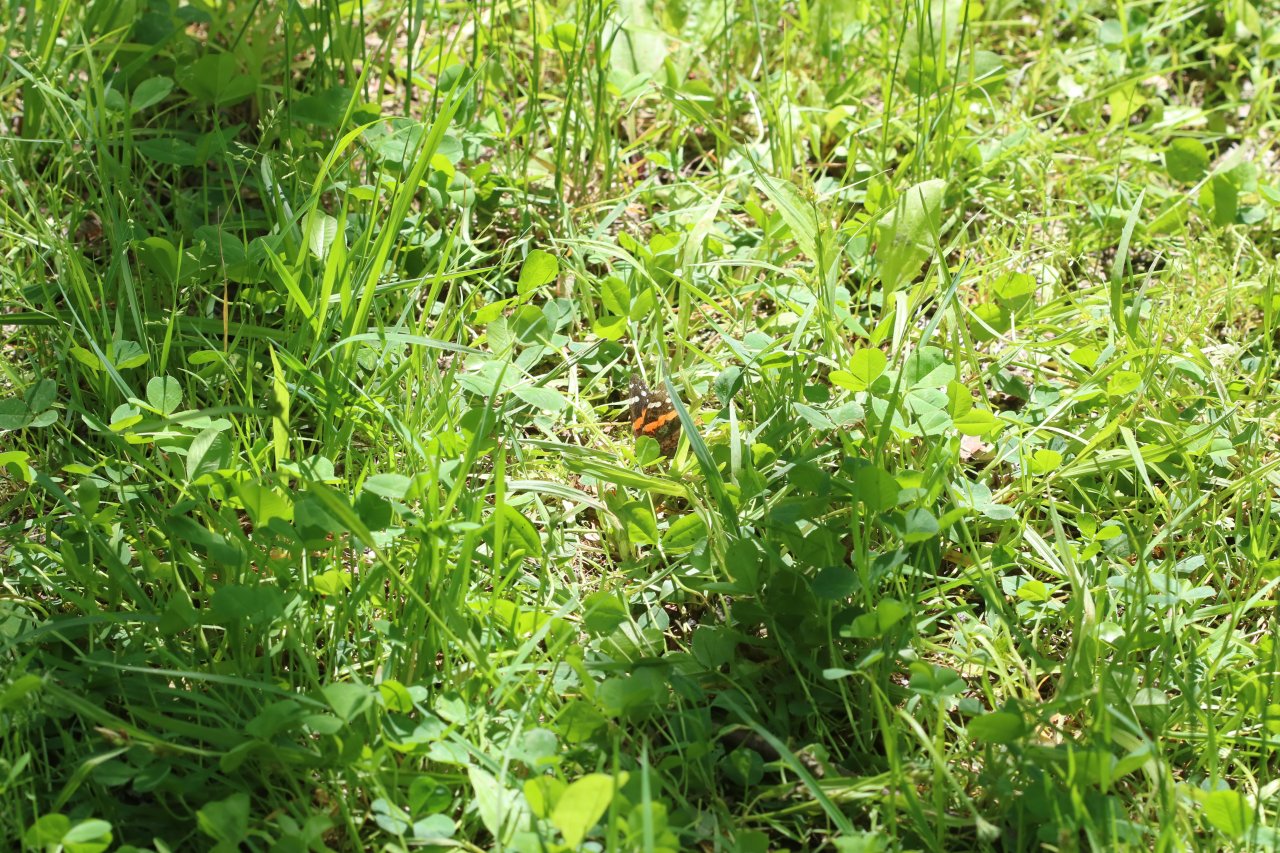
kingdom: Animalia
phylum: Arthropoda
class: Insecta
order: Lepidoptera
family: Nymphalidae
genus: Vanessa
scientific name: Vanessa atalanta
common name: Red Admiral
